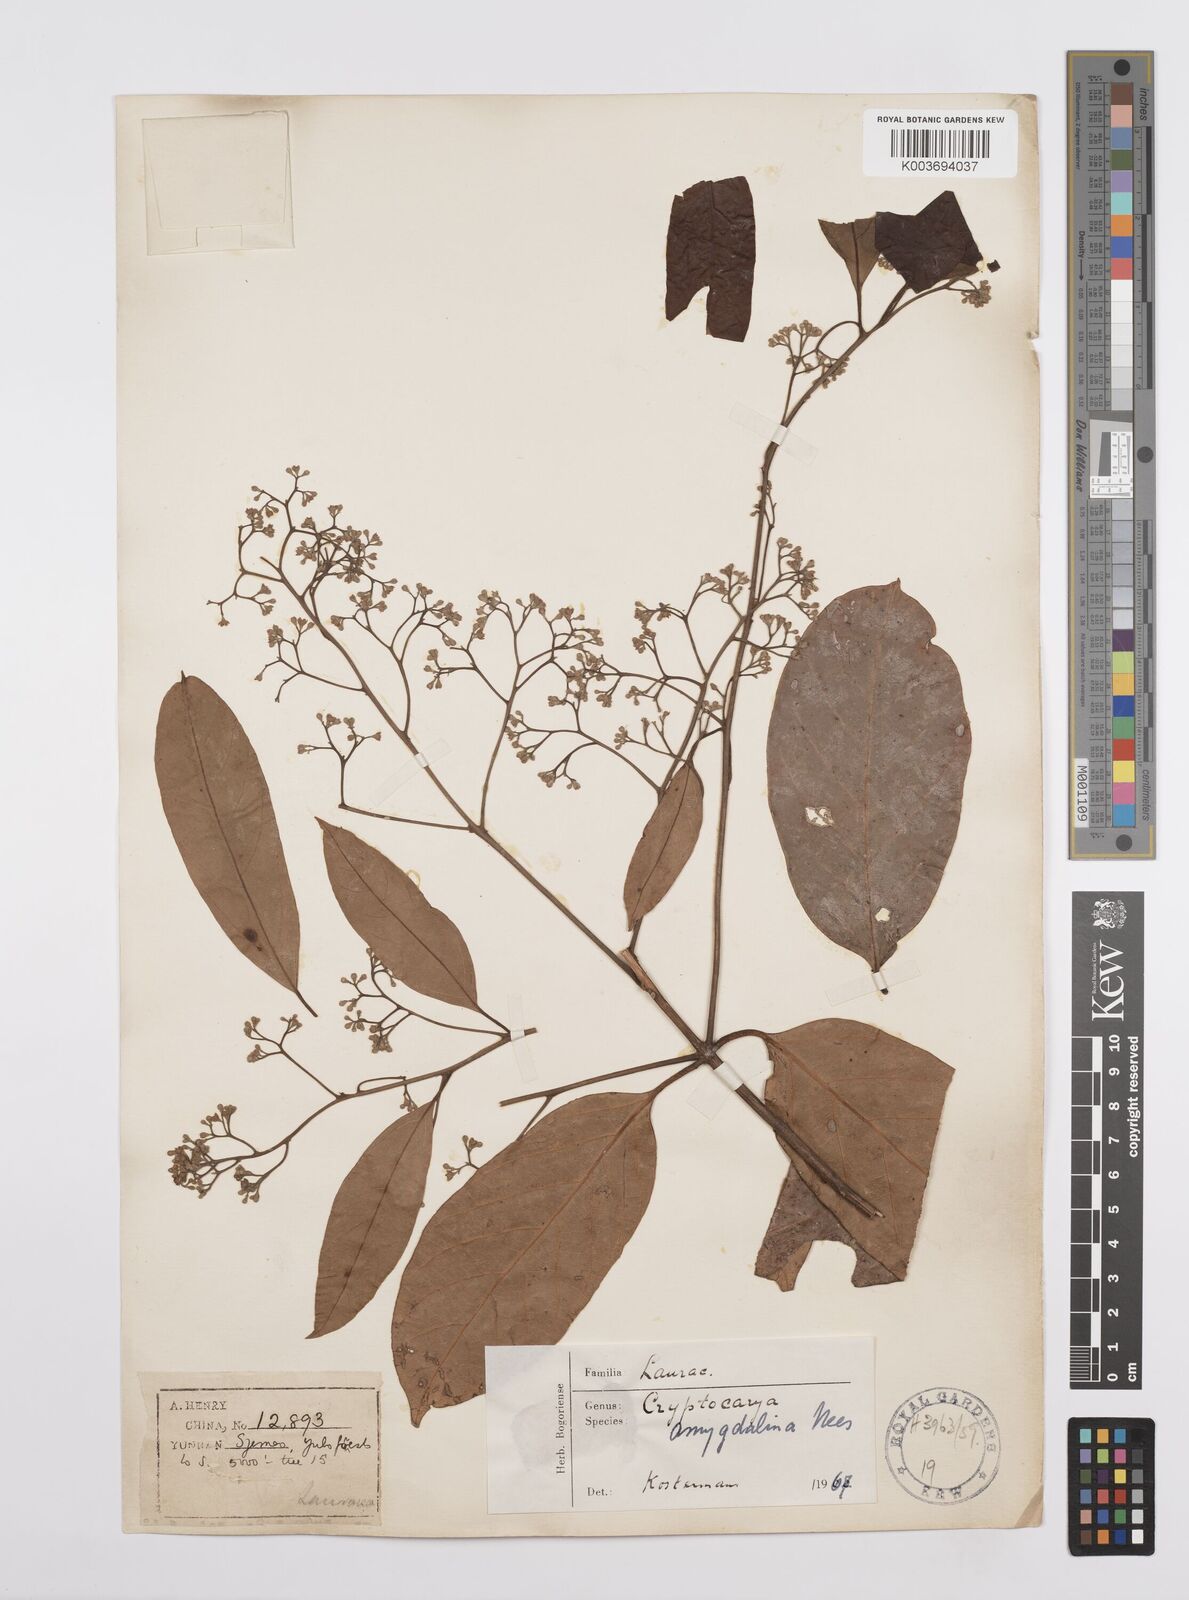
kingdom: Plantae
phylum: Tracheophyta
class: Magnoliopsida
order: Laurales
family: Lauraceae
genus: Cryptocarya
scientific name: Cryptocarya amygdalina
